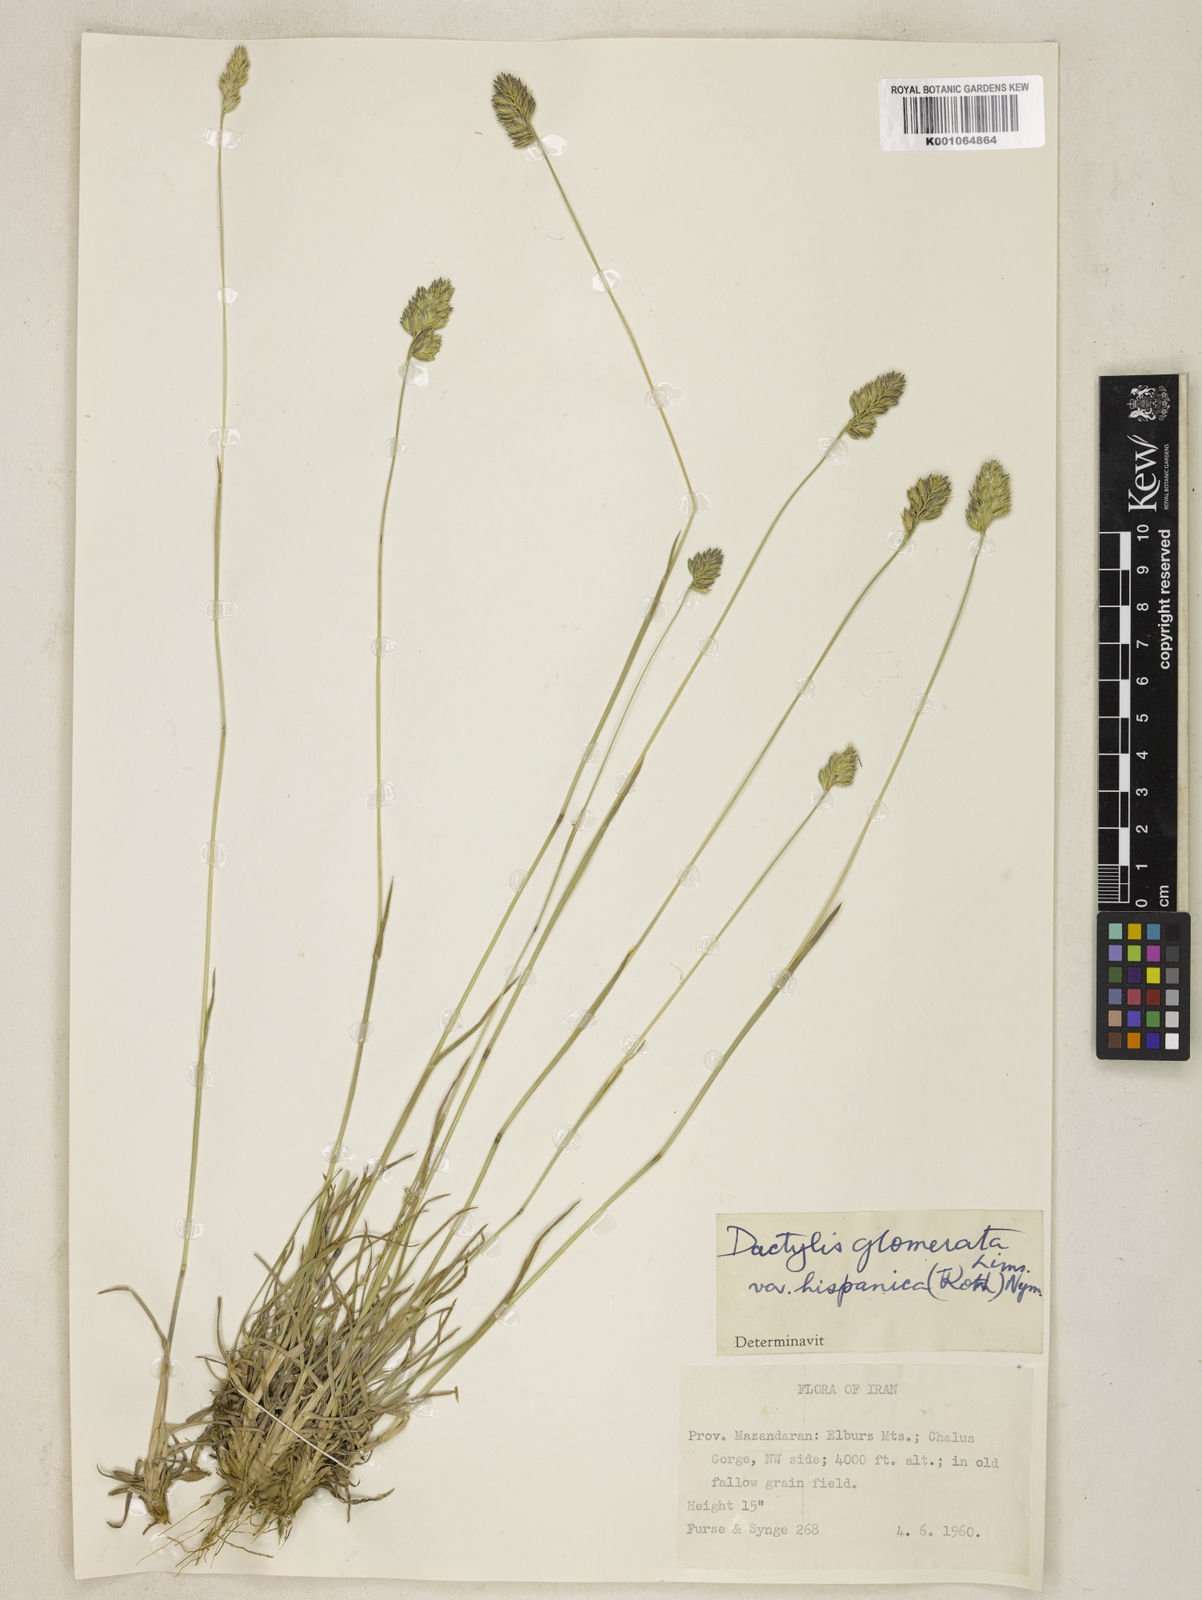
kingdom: Plantae
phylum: Tracheophyta
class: Liliopsida
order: Poales
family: Poaceae
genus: Dactylis
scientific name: Dactylis glomerata
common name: Orchardgrass
